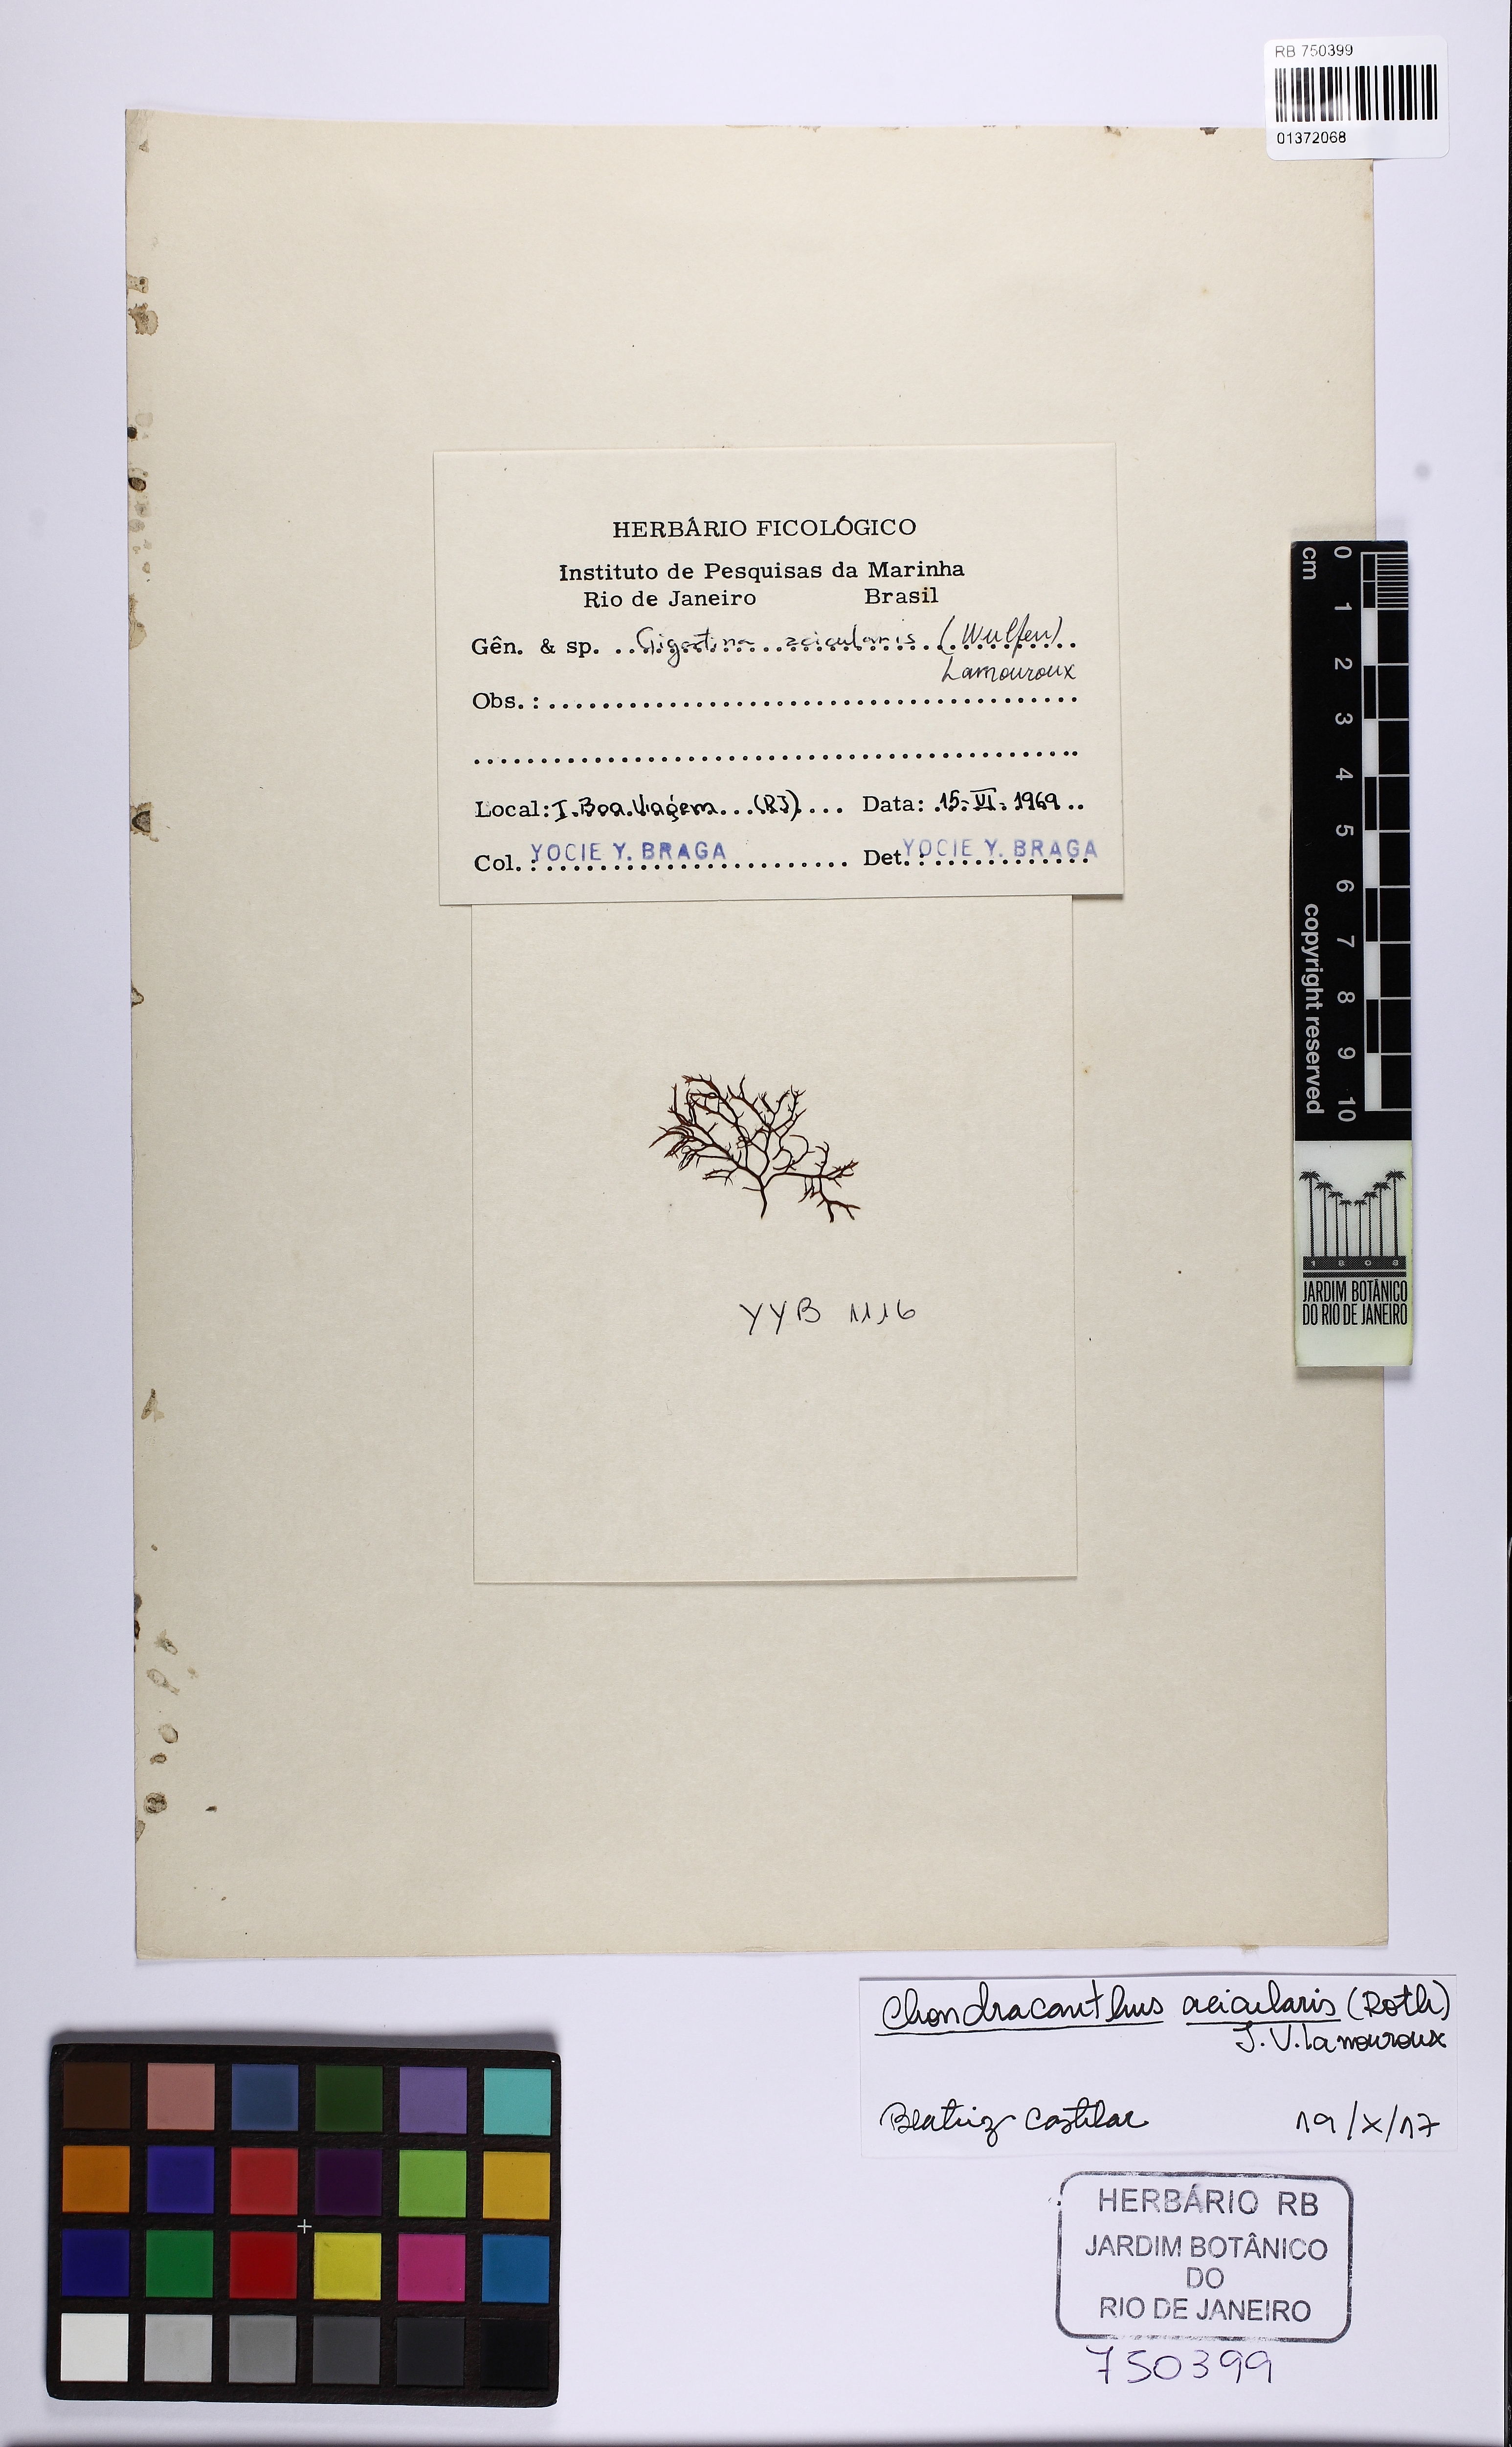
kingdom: Plantae
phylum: Rhodophyta
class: Florideophyceae
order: Gigartinales
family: Gigartinaceae
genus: Chondracanthus
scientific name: Chondracanthus acicularis
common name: Creephorn
